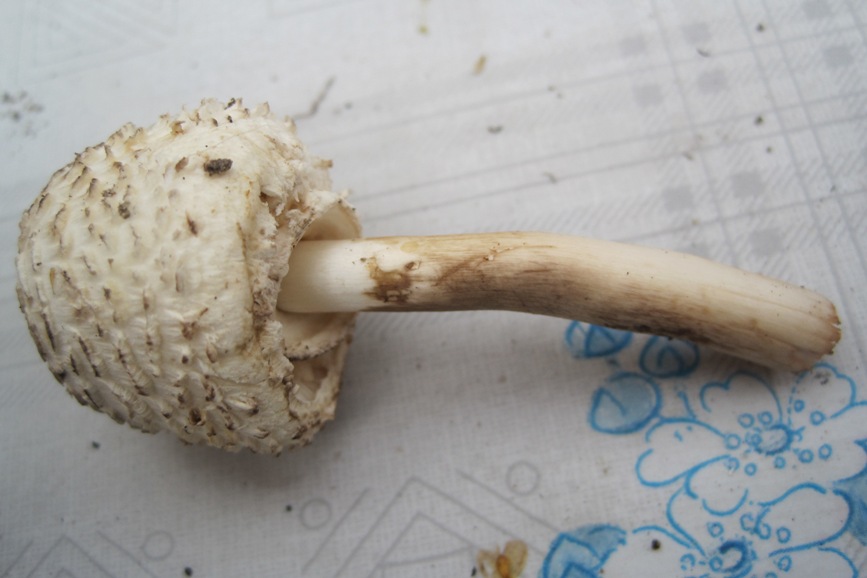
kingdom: Fungi
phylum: Basidiomycota
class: Agaricomycetes
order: Agaricales
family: Agaricaceae
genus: Leucoagaricus
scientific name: Leucoagaricus nympharum
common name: gran-silkehat
